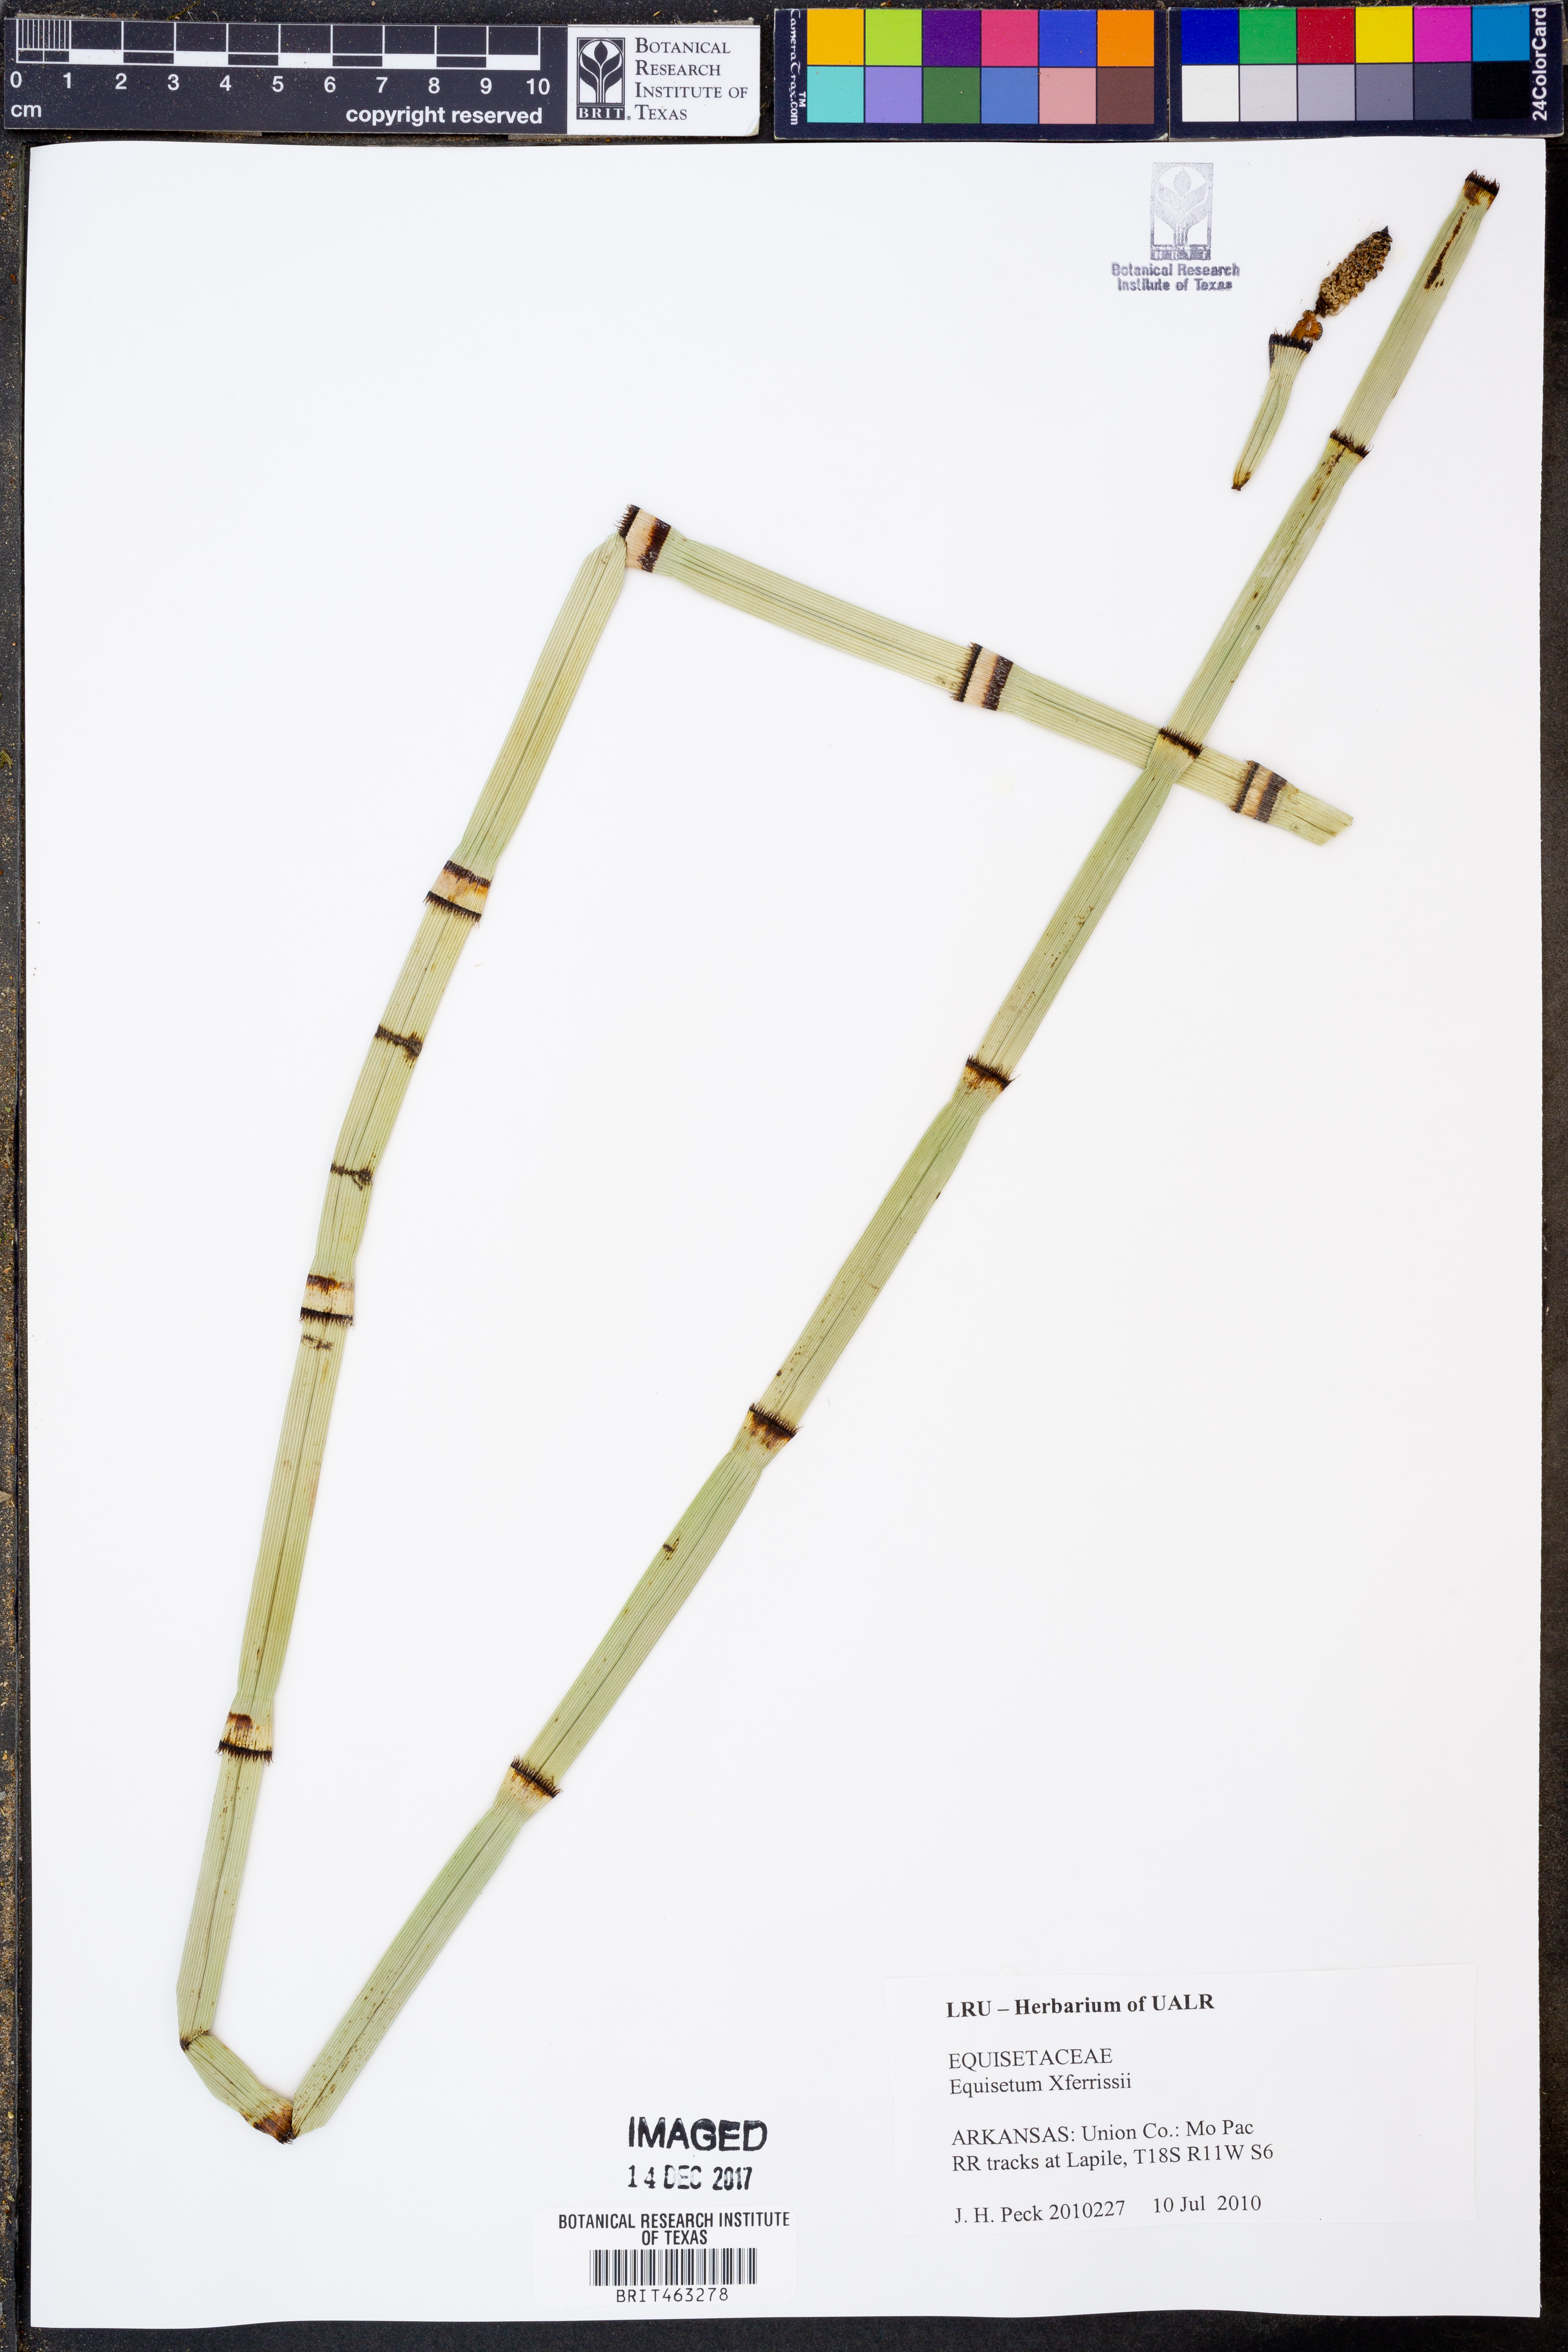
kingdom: Plantae
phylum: Tracheophyta
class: Polypodiopsida
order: Equisetales
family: Equisetaceae
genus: Equisetum
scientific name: Equisetum ferrissii
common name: Ferriss' horsetail
